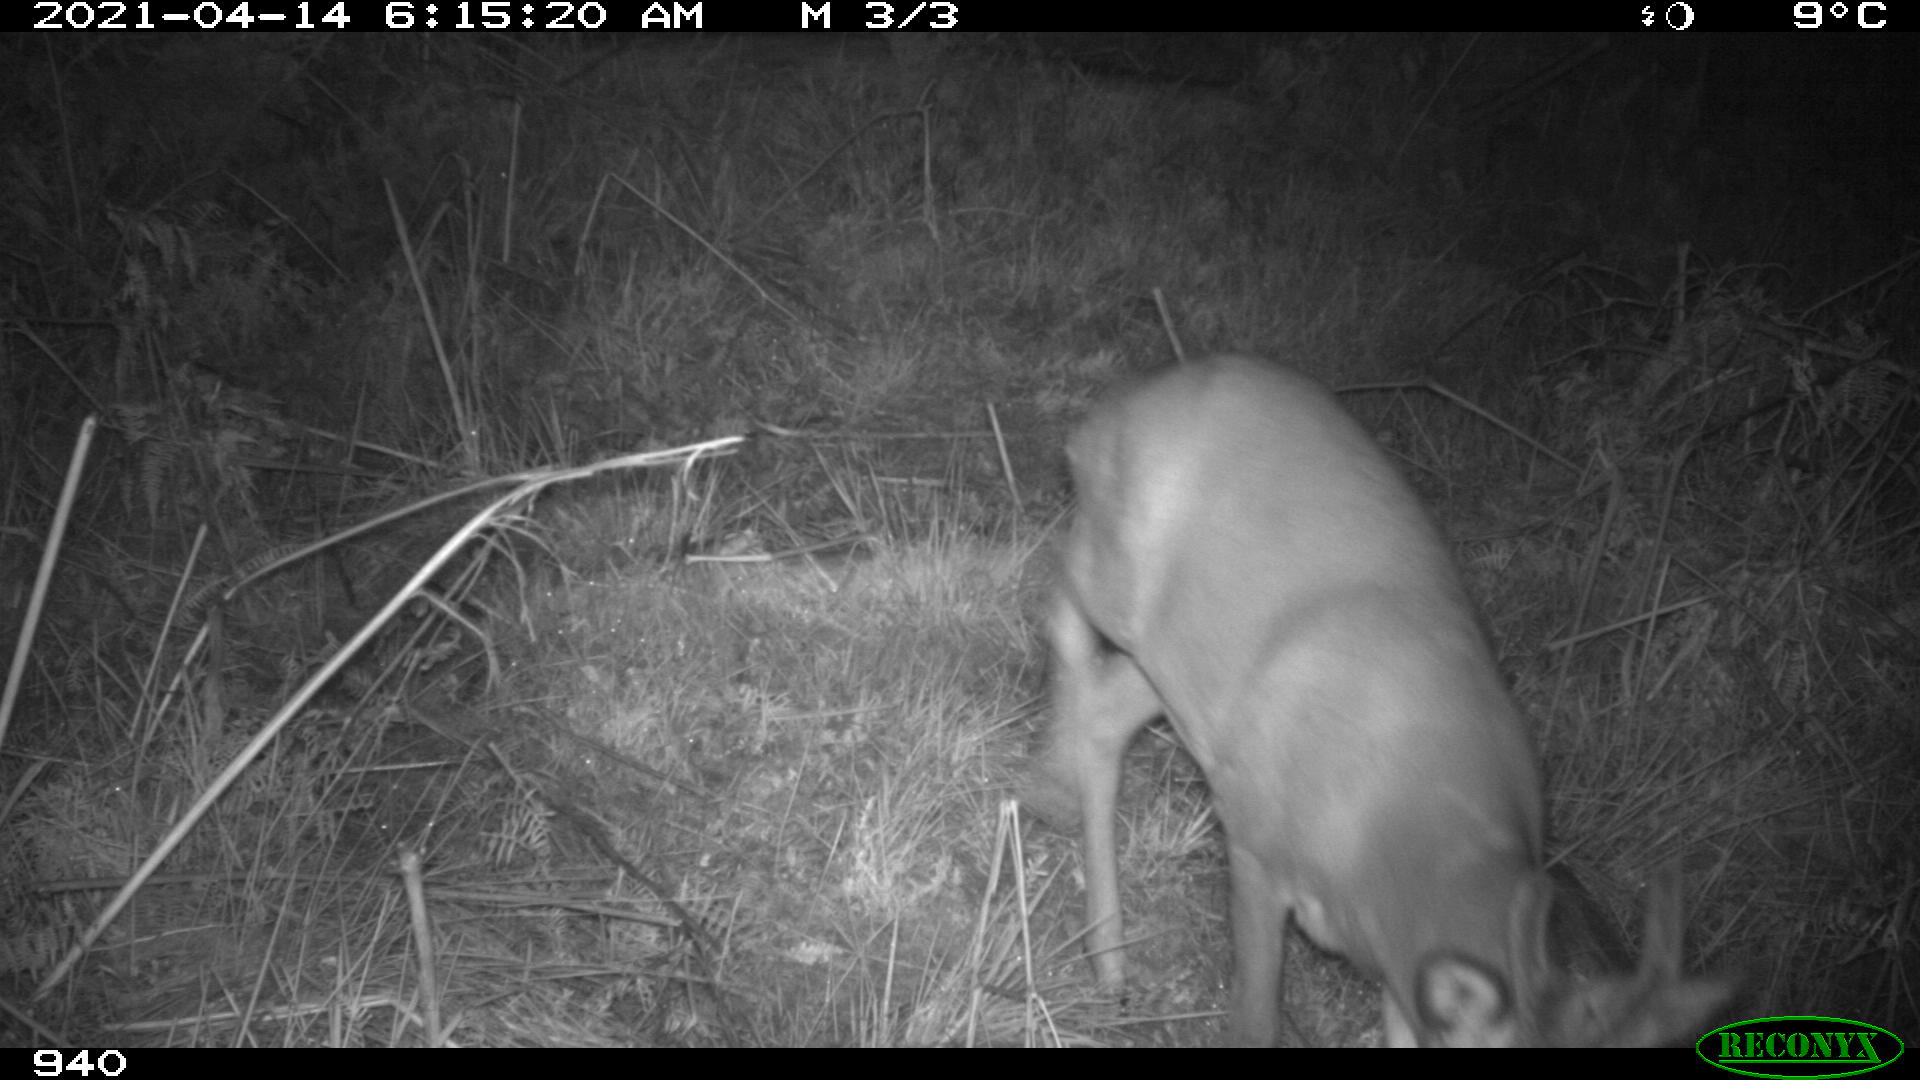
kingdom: Animalia
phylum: Chordata
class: Mammalia
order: Artiodactyla
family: Cervidae
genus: Capreolus
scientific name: Capreolus capreolus
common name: Western roe deer
